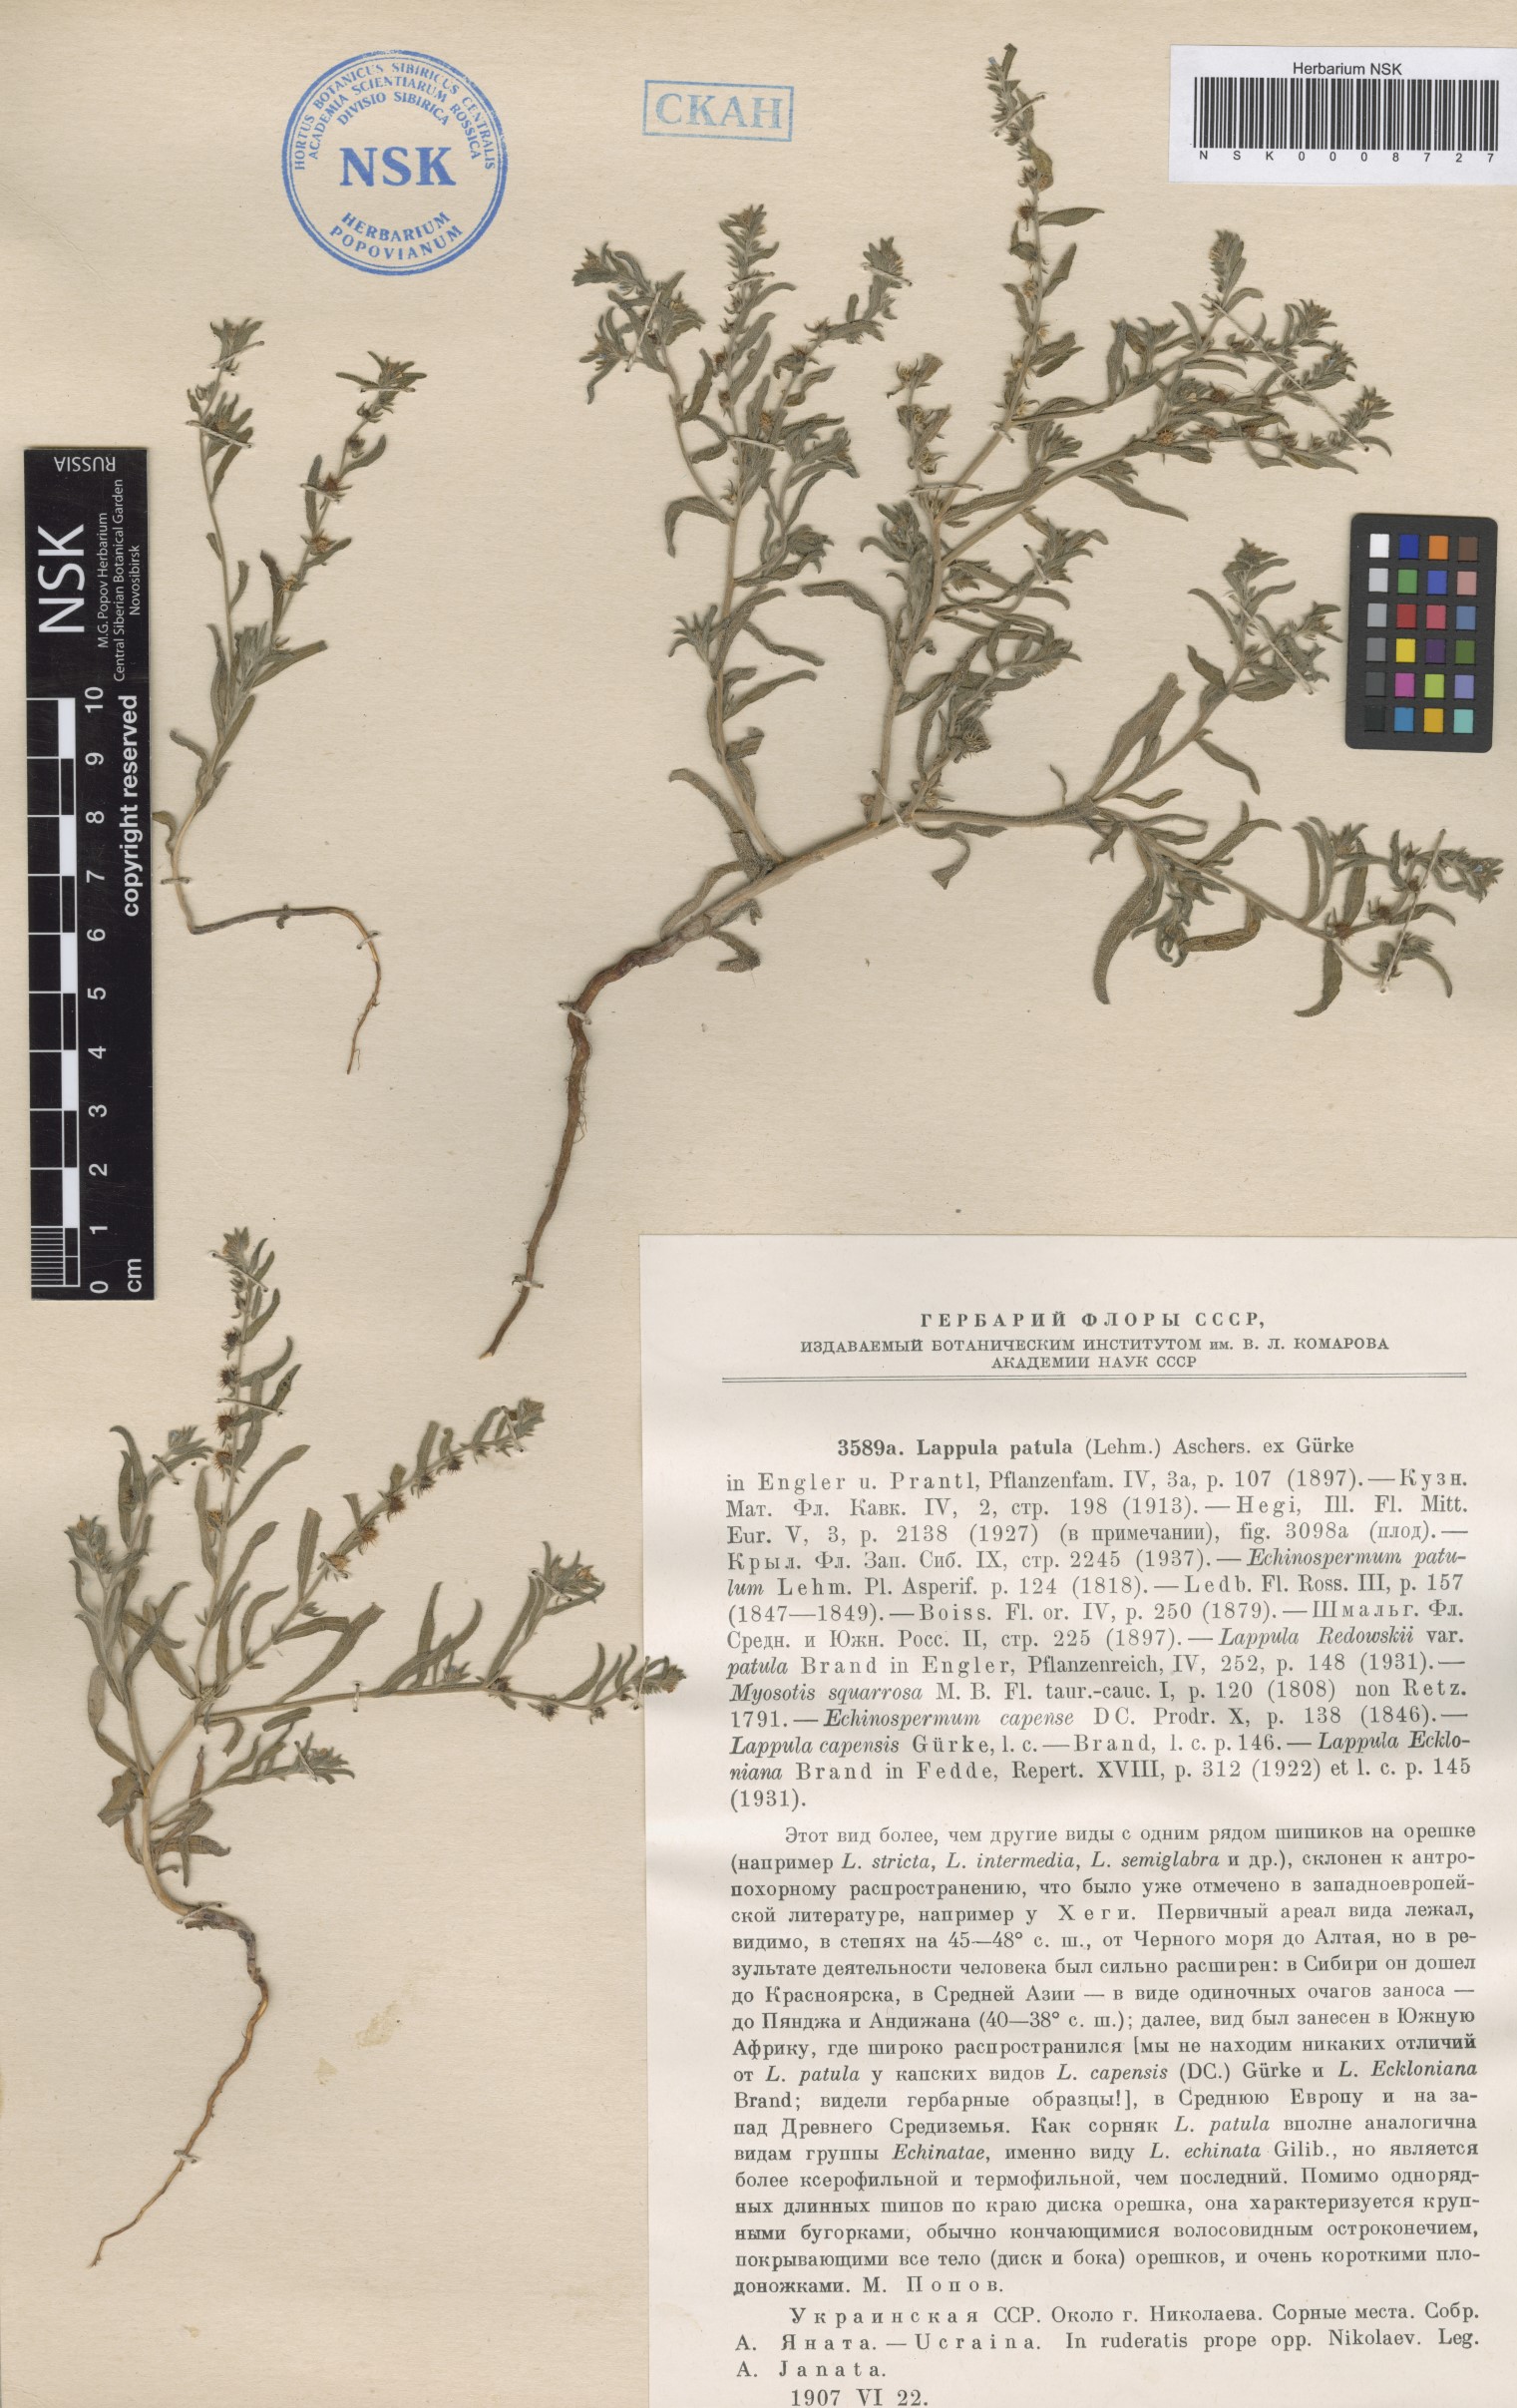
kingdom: Plantae
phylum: Tracheophyta
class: Magnoliopsida
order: Boraginales
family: Boraginaceae
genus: Lappula
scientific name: Lappula patula
